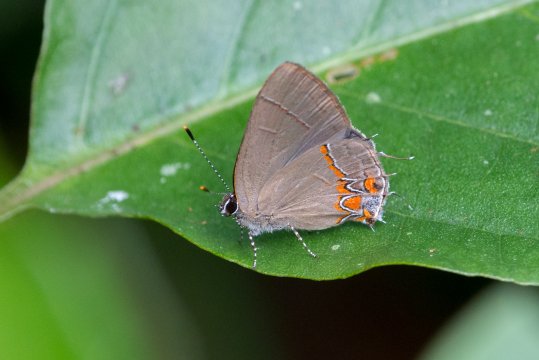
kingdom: Animalia
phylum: Arthropoda
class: Insecta
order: Lepidoptera
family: Lycaenidae
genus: Calycopis
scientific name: Calycopis isobeon
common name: Dusky-blue Groundstreak
